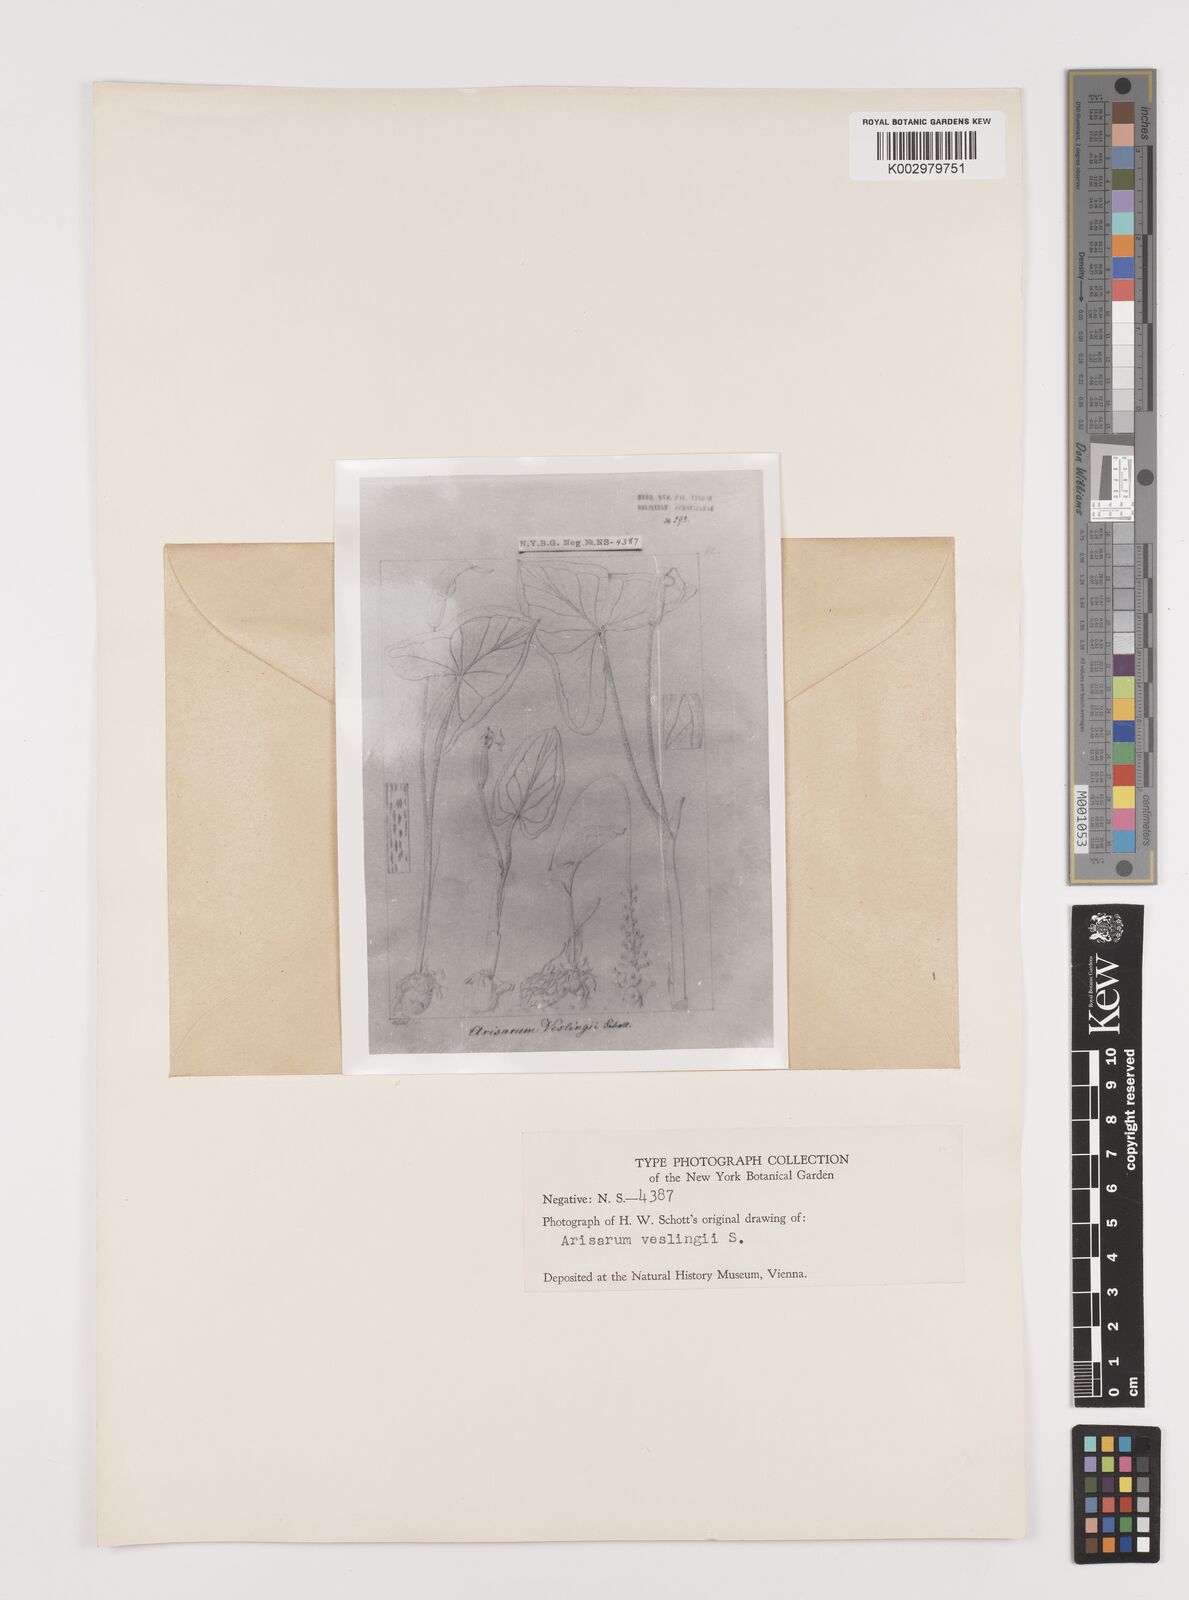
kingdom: Plantae
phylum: Tracheophyta
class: Liliopsida
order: Alismatales
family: Araceae
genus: Arisarum
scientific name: Arisarum vulgare
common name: Common arisarum
